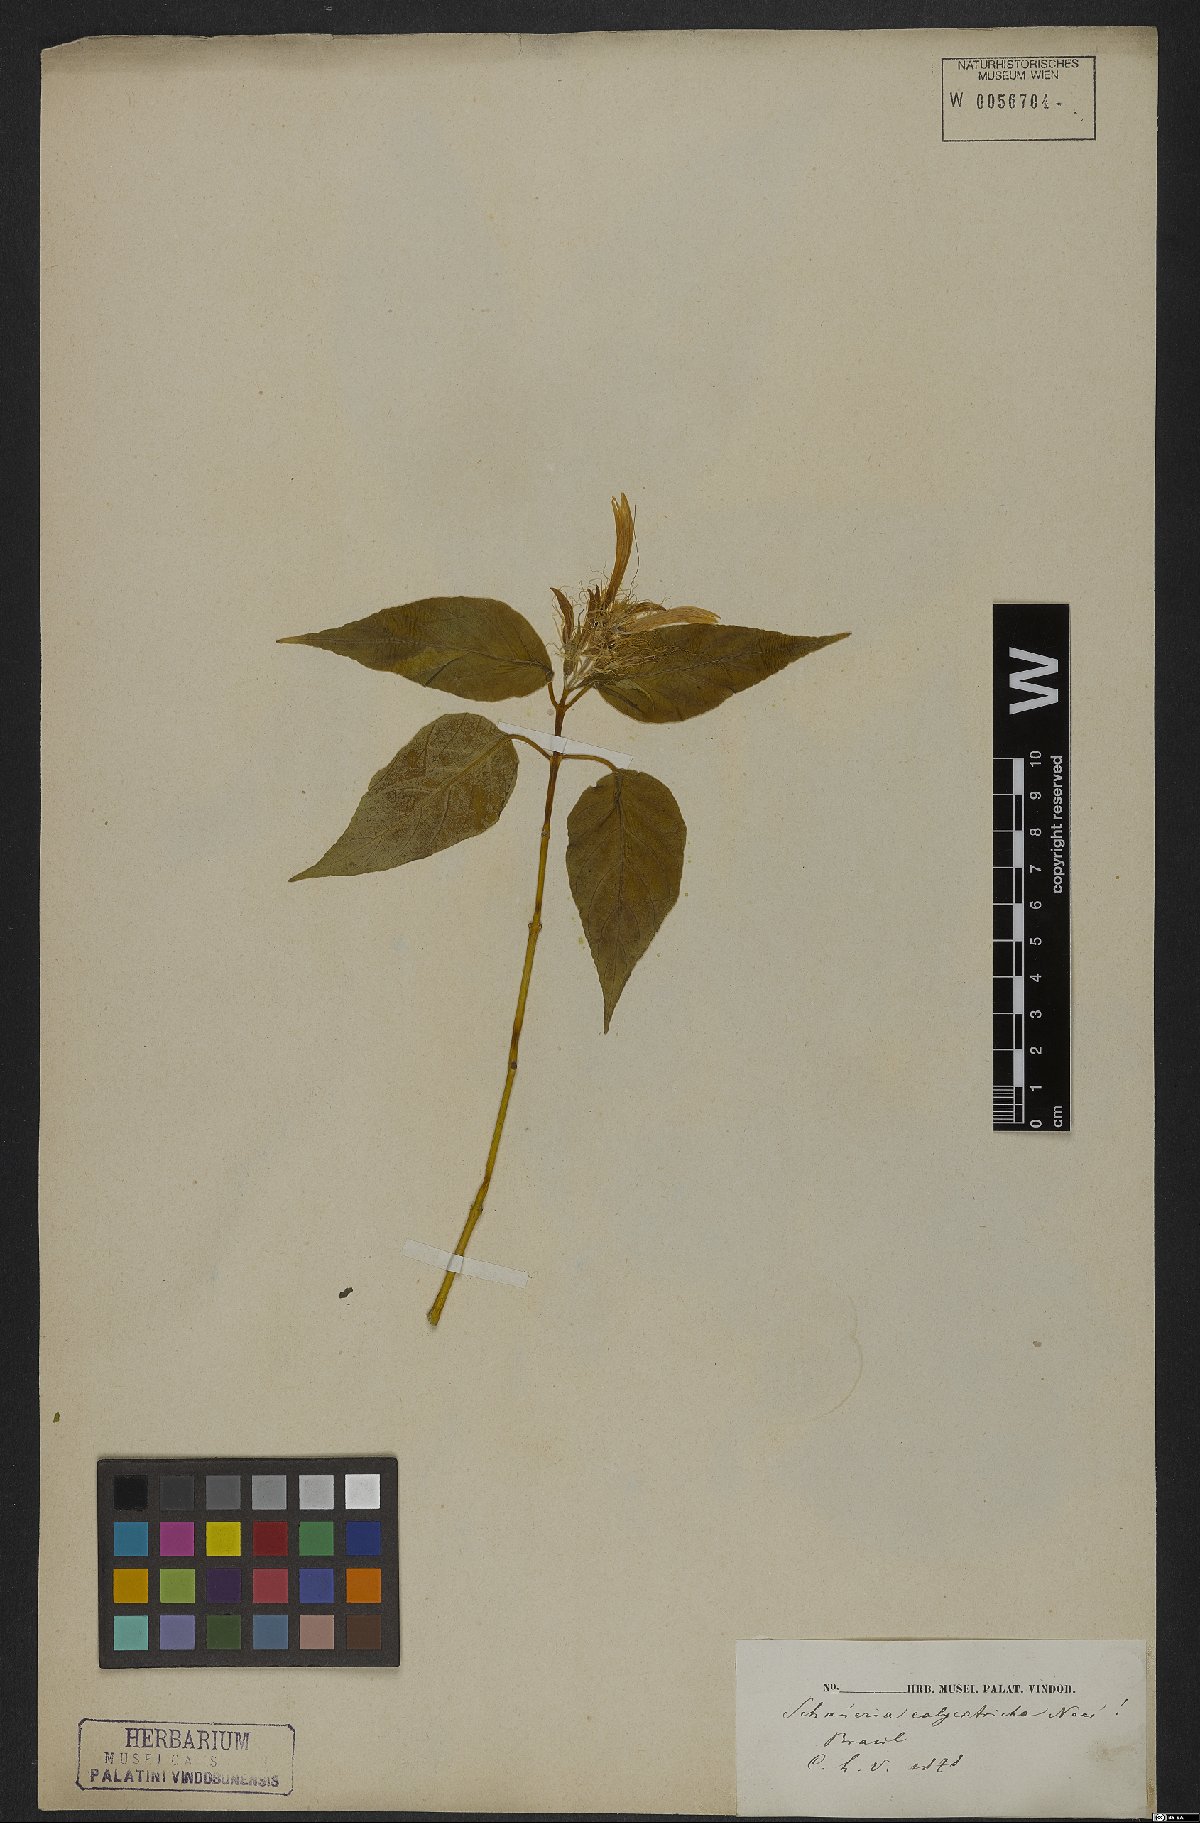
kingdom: Plantae
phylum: Tracheophyta
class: Magnoliopsida
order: Lamiales
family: Acanthaceae
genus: Schaueria
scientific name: Schaueria calytricha
